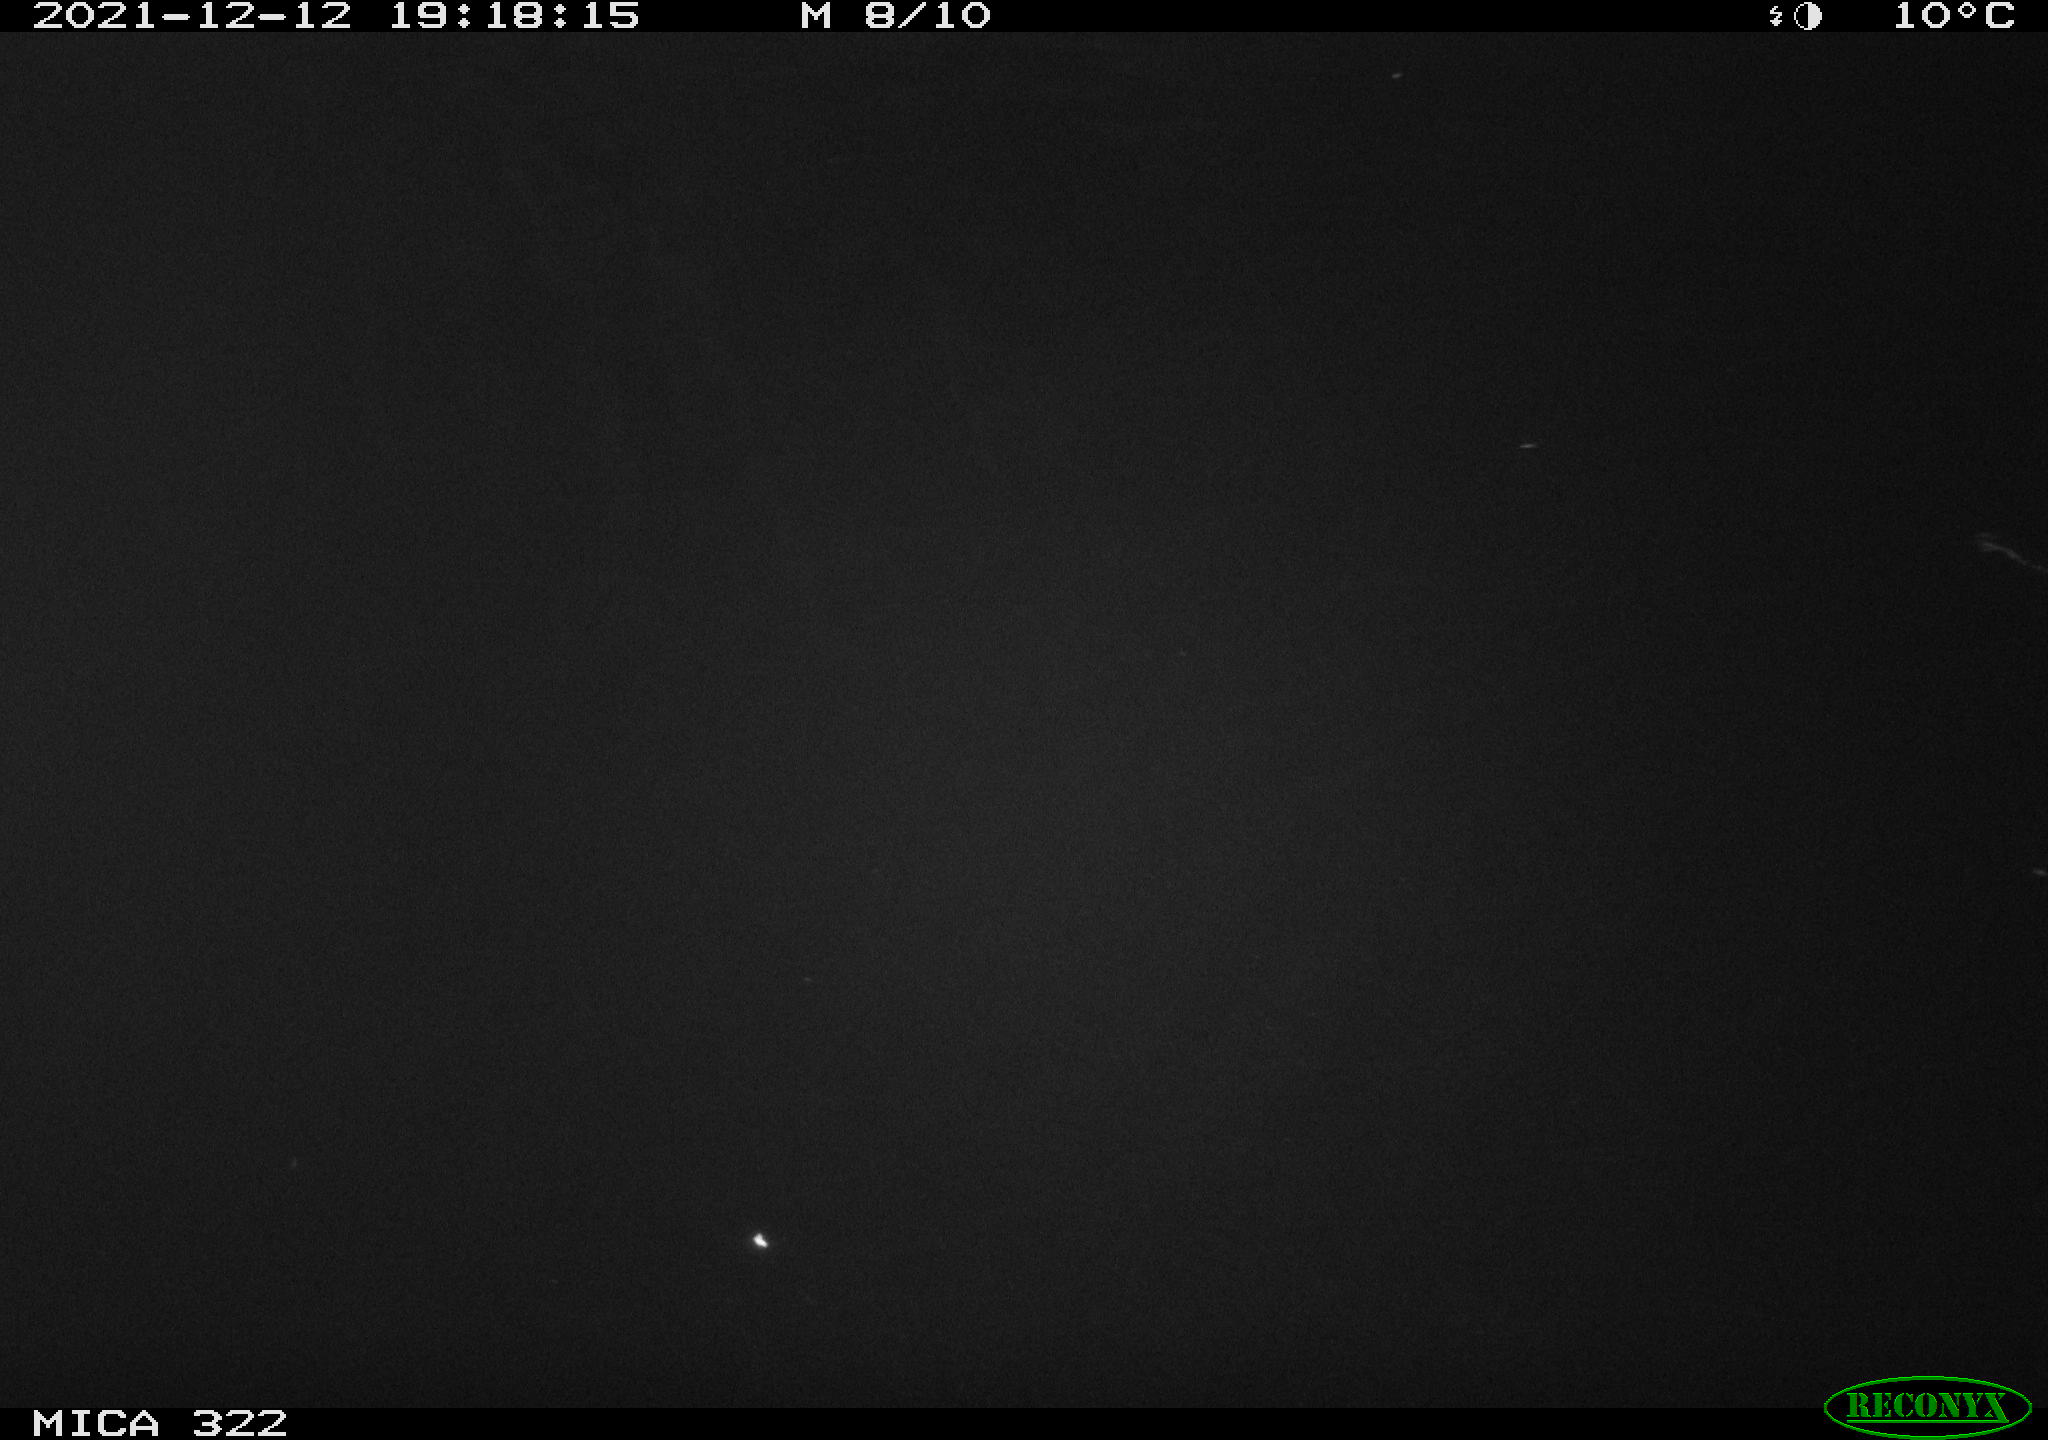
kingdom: Animalia
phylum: Chordata
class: Mammalia
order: Rodentia
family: Muridae
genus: Rattus
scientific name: Rattus norvegicus
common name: Brown rat
